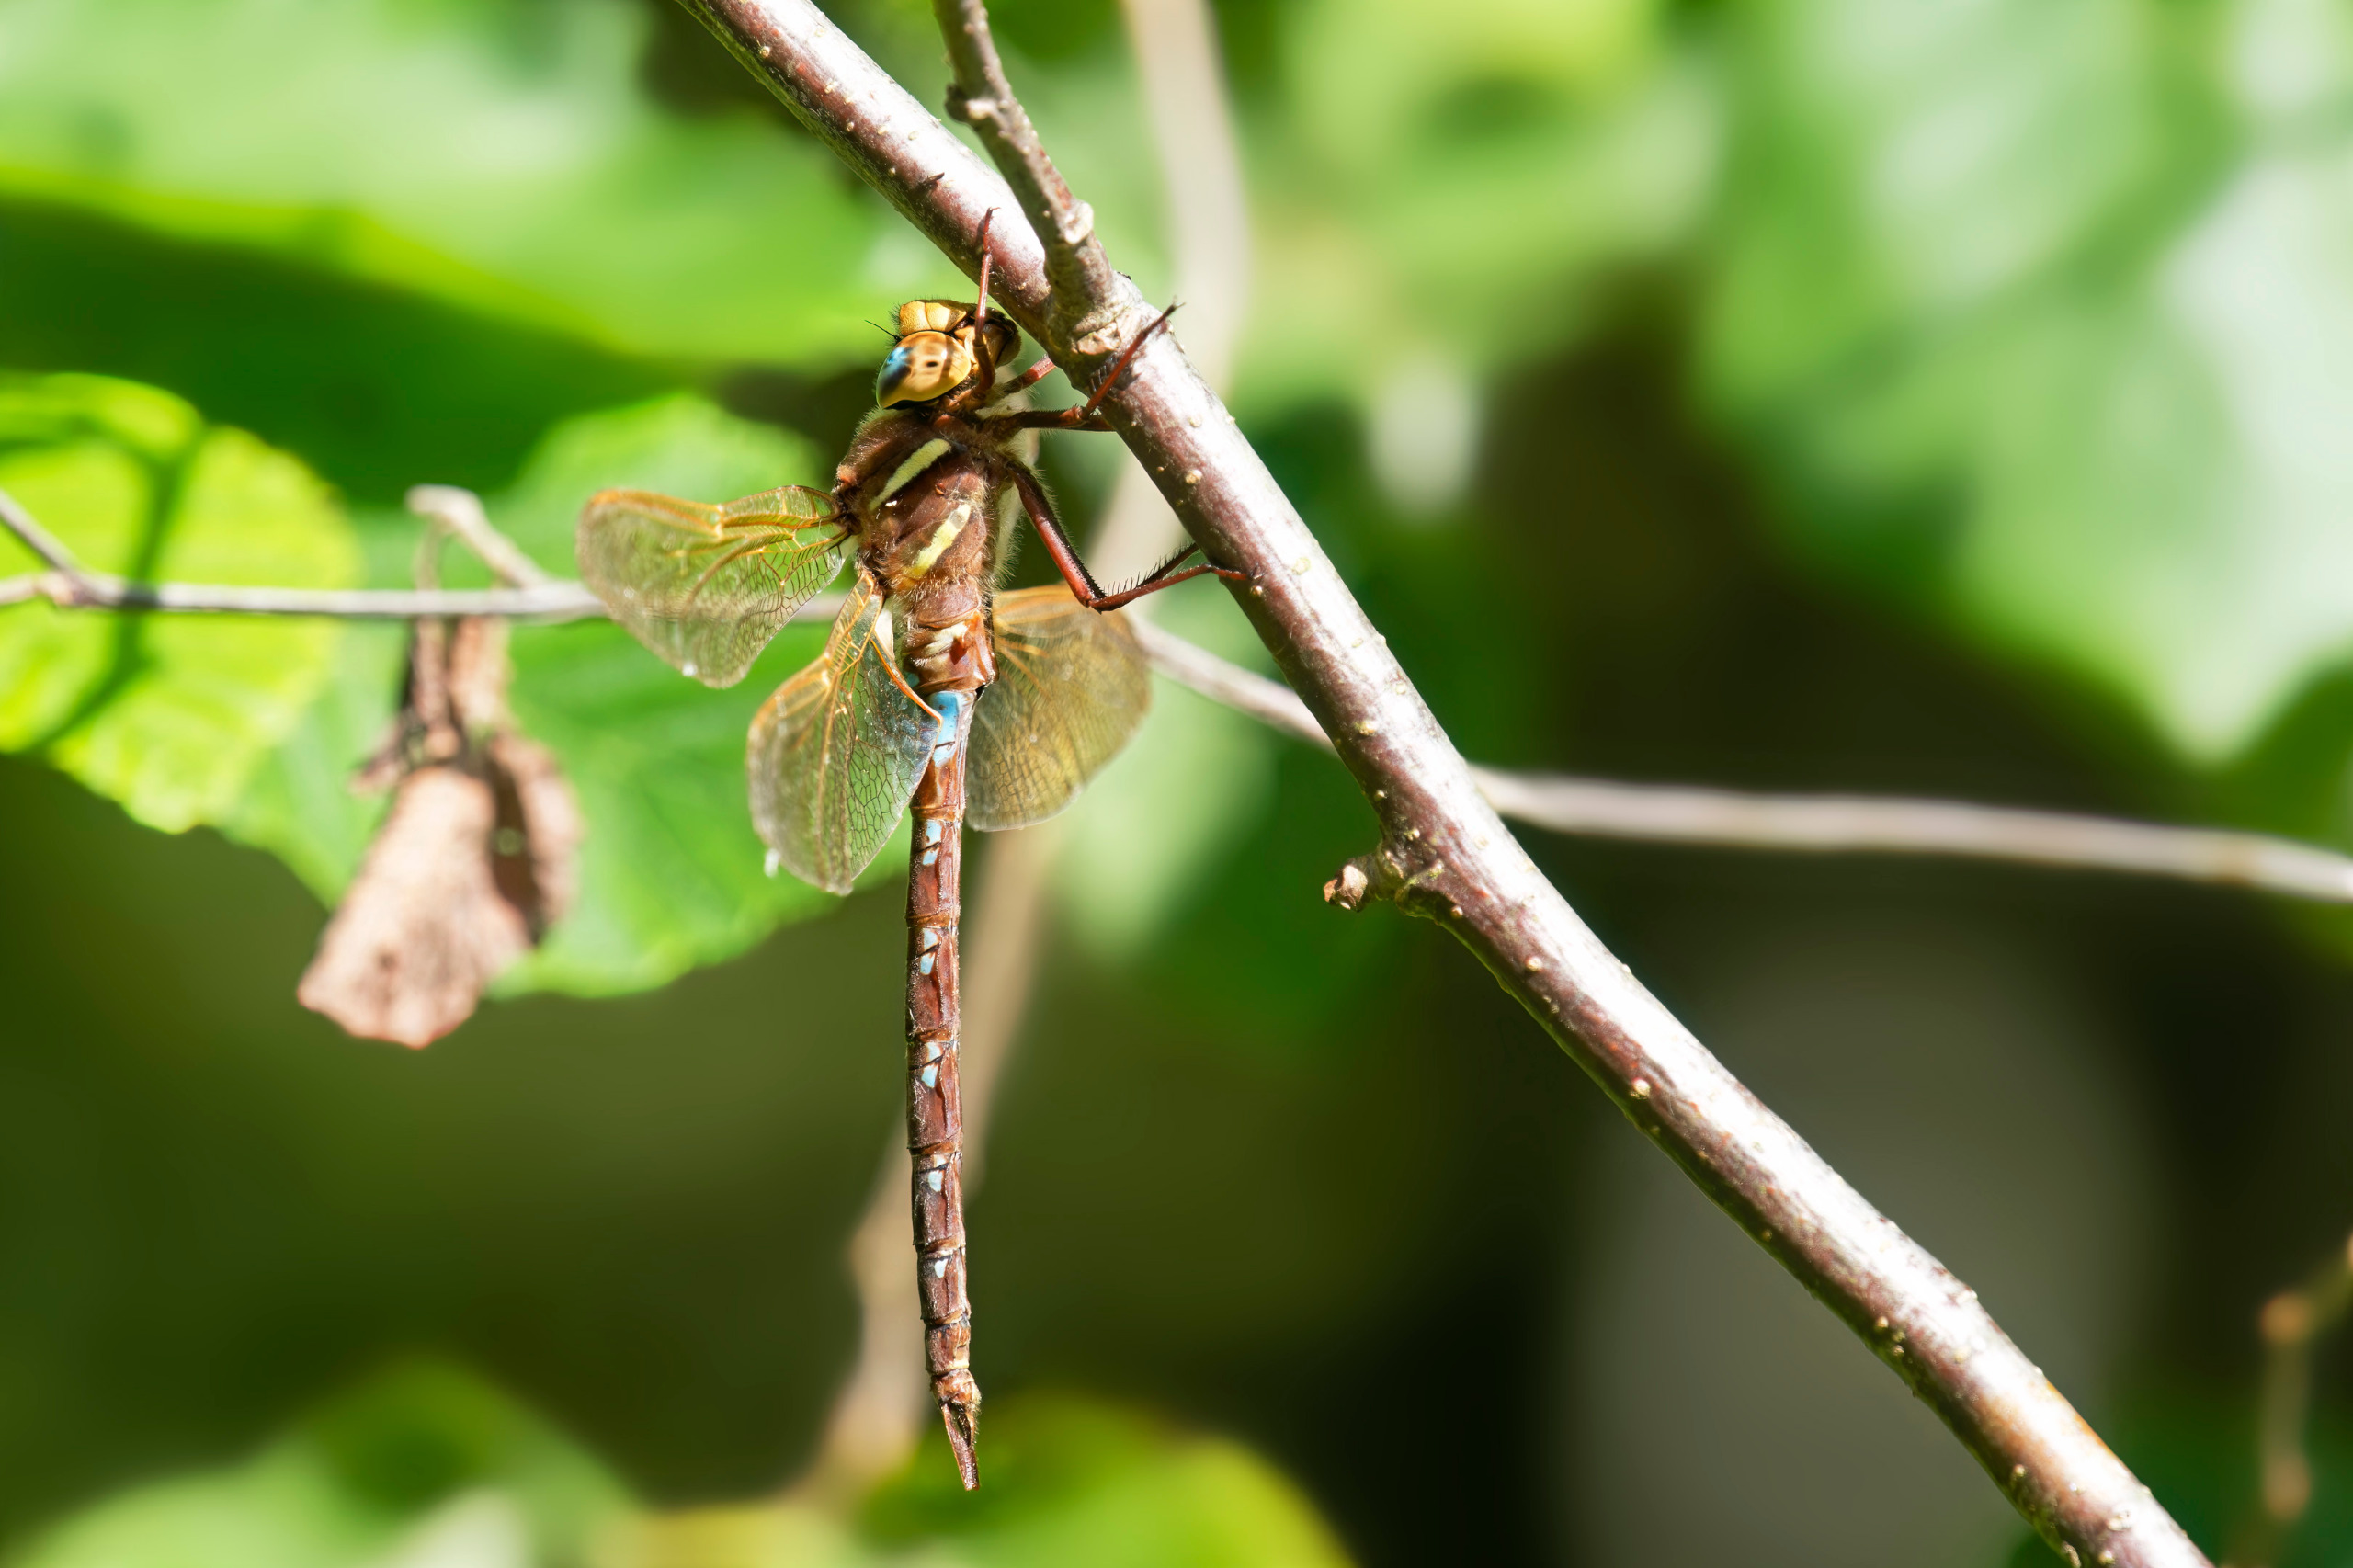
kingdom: Animalia
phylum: Arthropoda
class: Insecta
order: Odonata
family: Aeshnidae
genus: Aeshna
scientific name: Aeshna grandis
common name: Brun mosaikguldsmed
